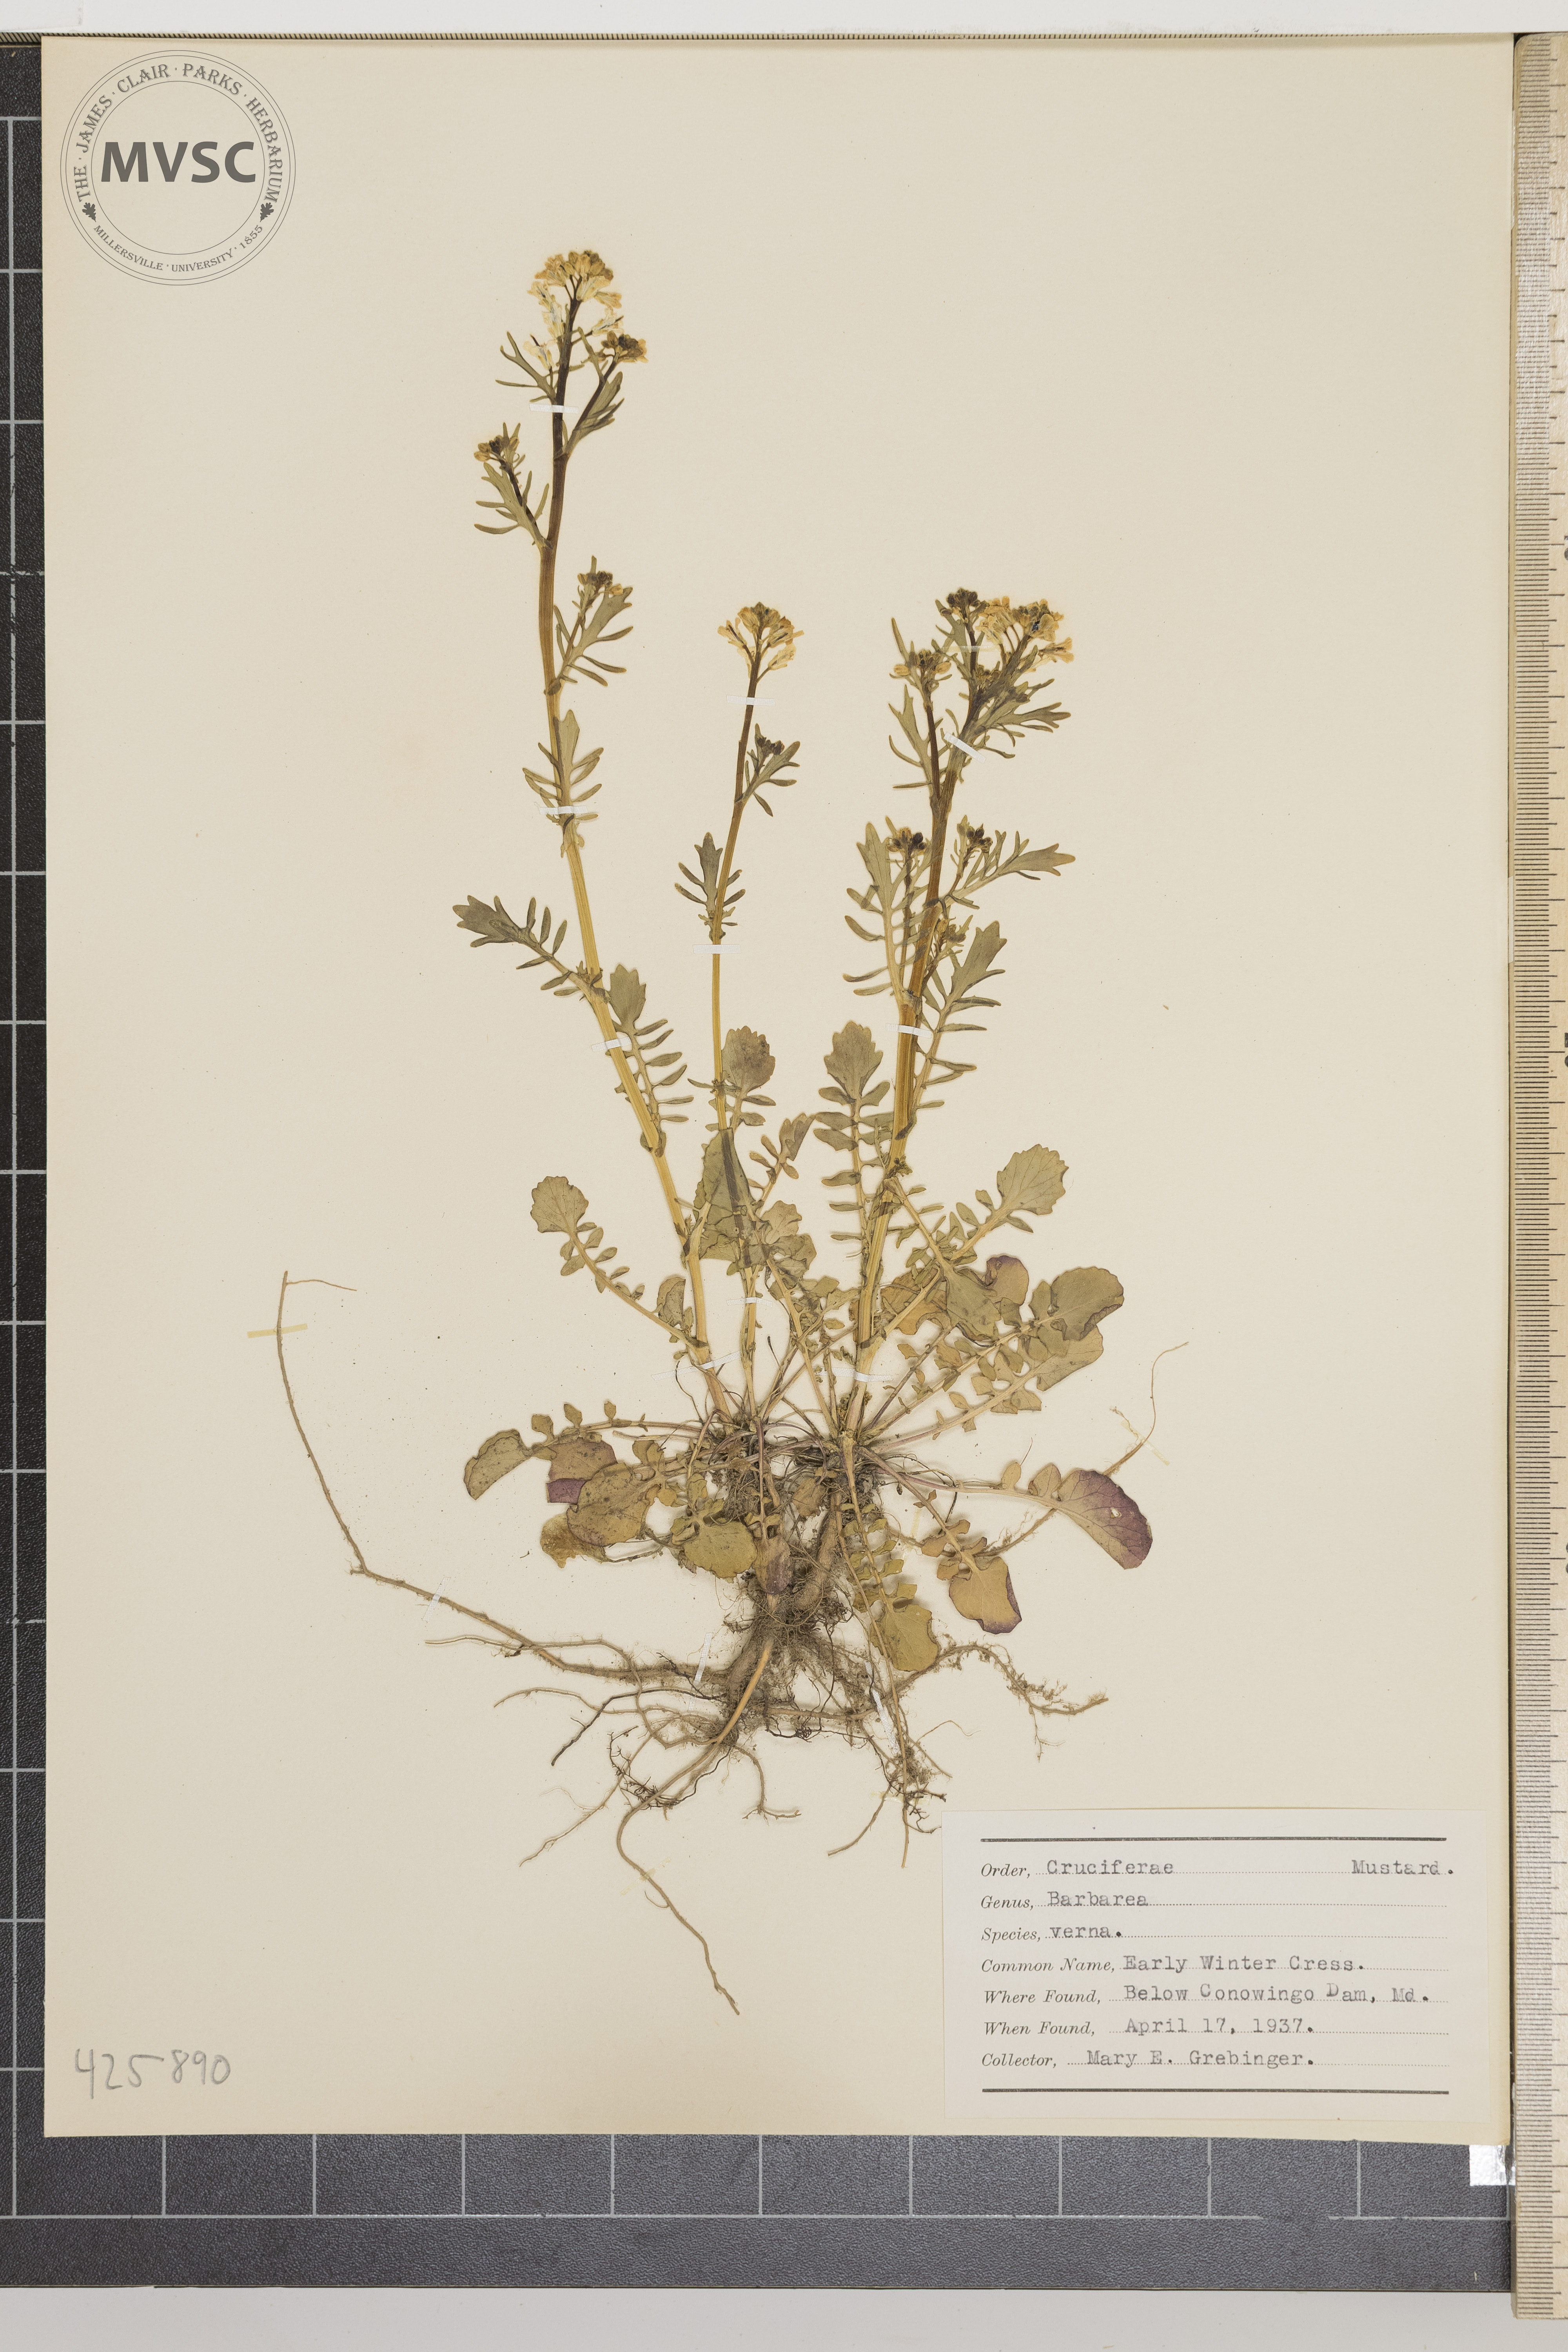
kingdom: Plantae
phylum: Tracheophyta
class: Magnoliopsida
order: Brassicales
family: Brassicaceae
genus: Barbarea
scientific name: Barbarea verna
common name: Early winter cress
